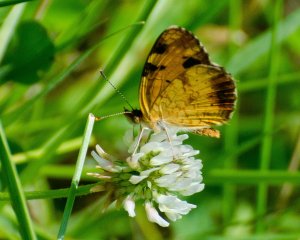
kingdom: Animalia
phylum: Arthropoda
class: Insecta
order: Lepidoptera
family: Nymphalidae
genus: Phyciodes
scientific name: Phyciodes tharos
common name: Northern Crescent
